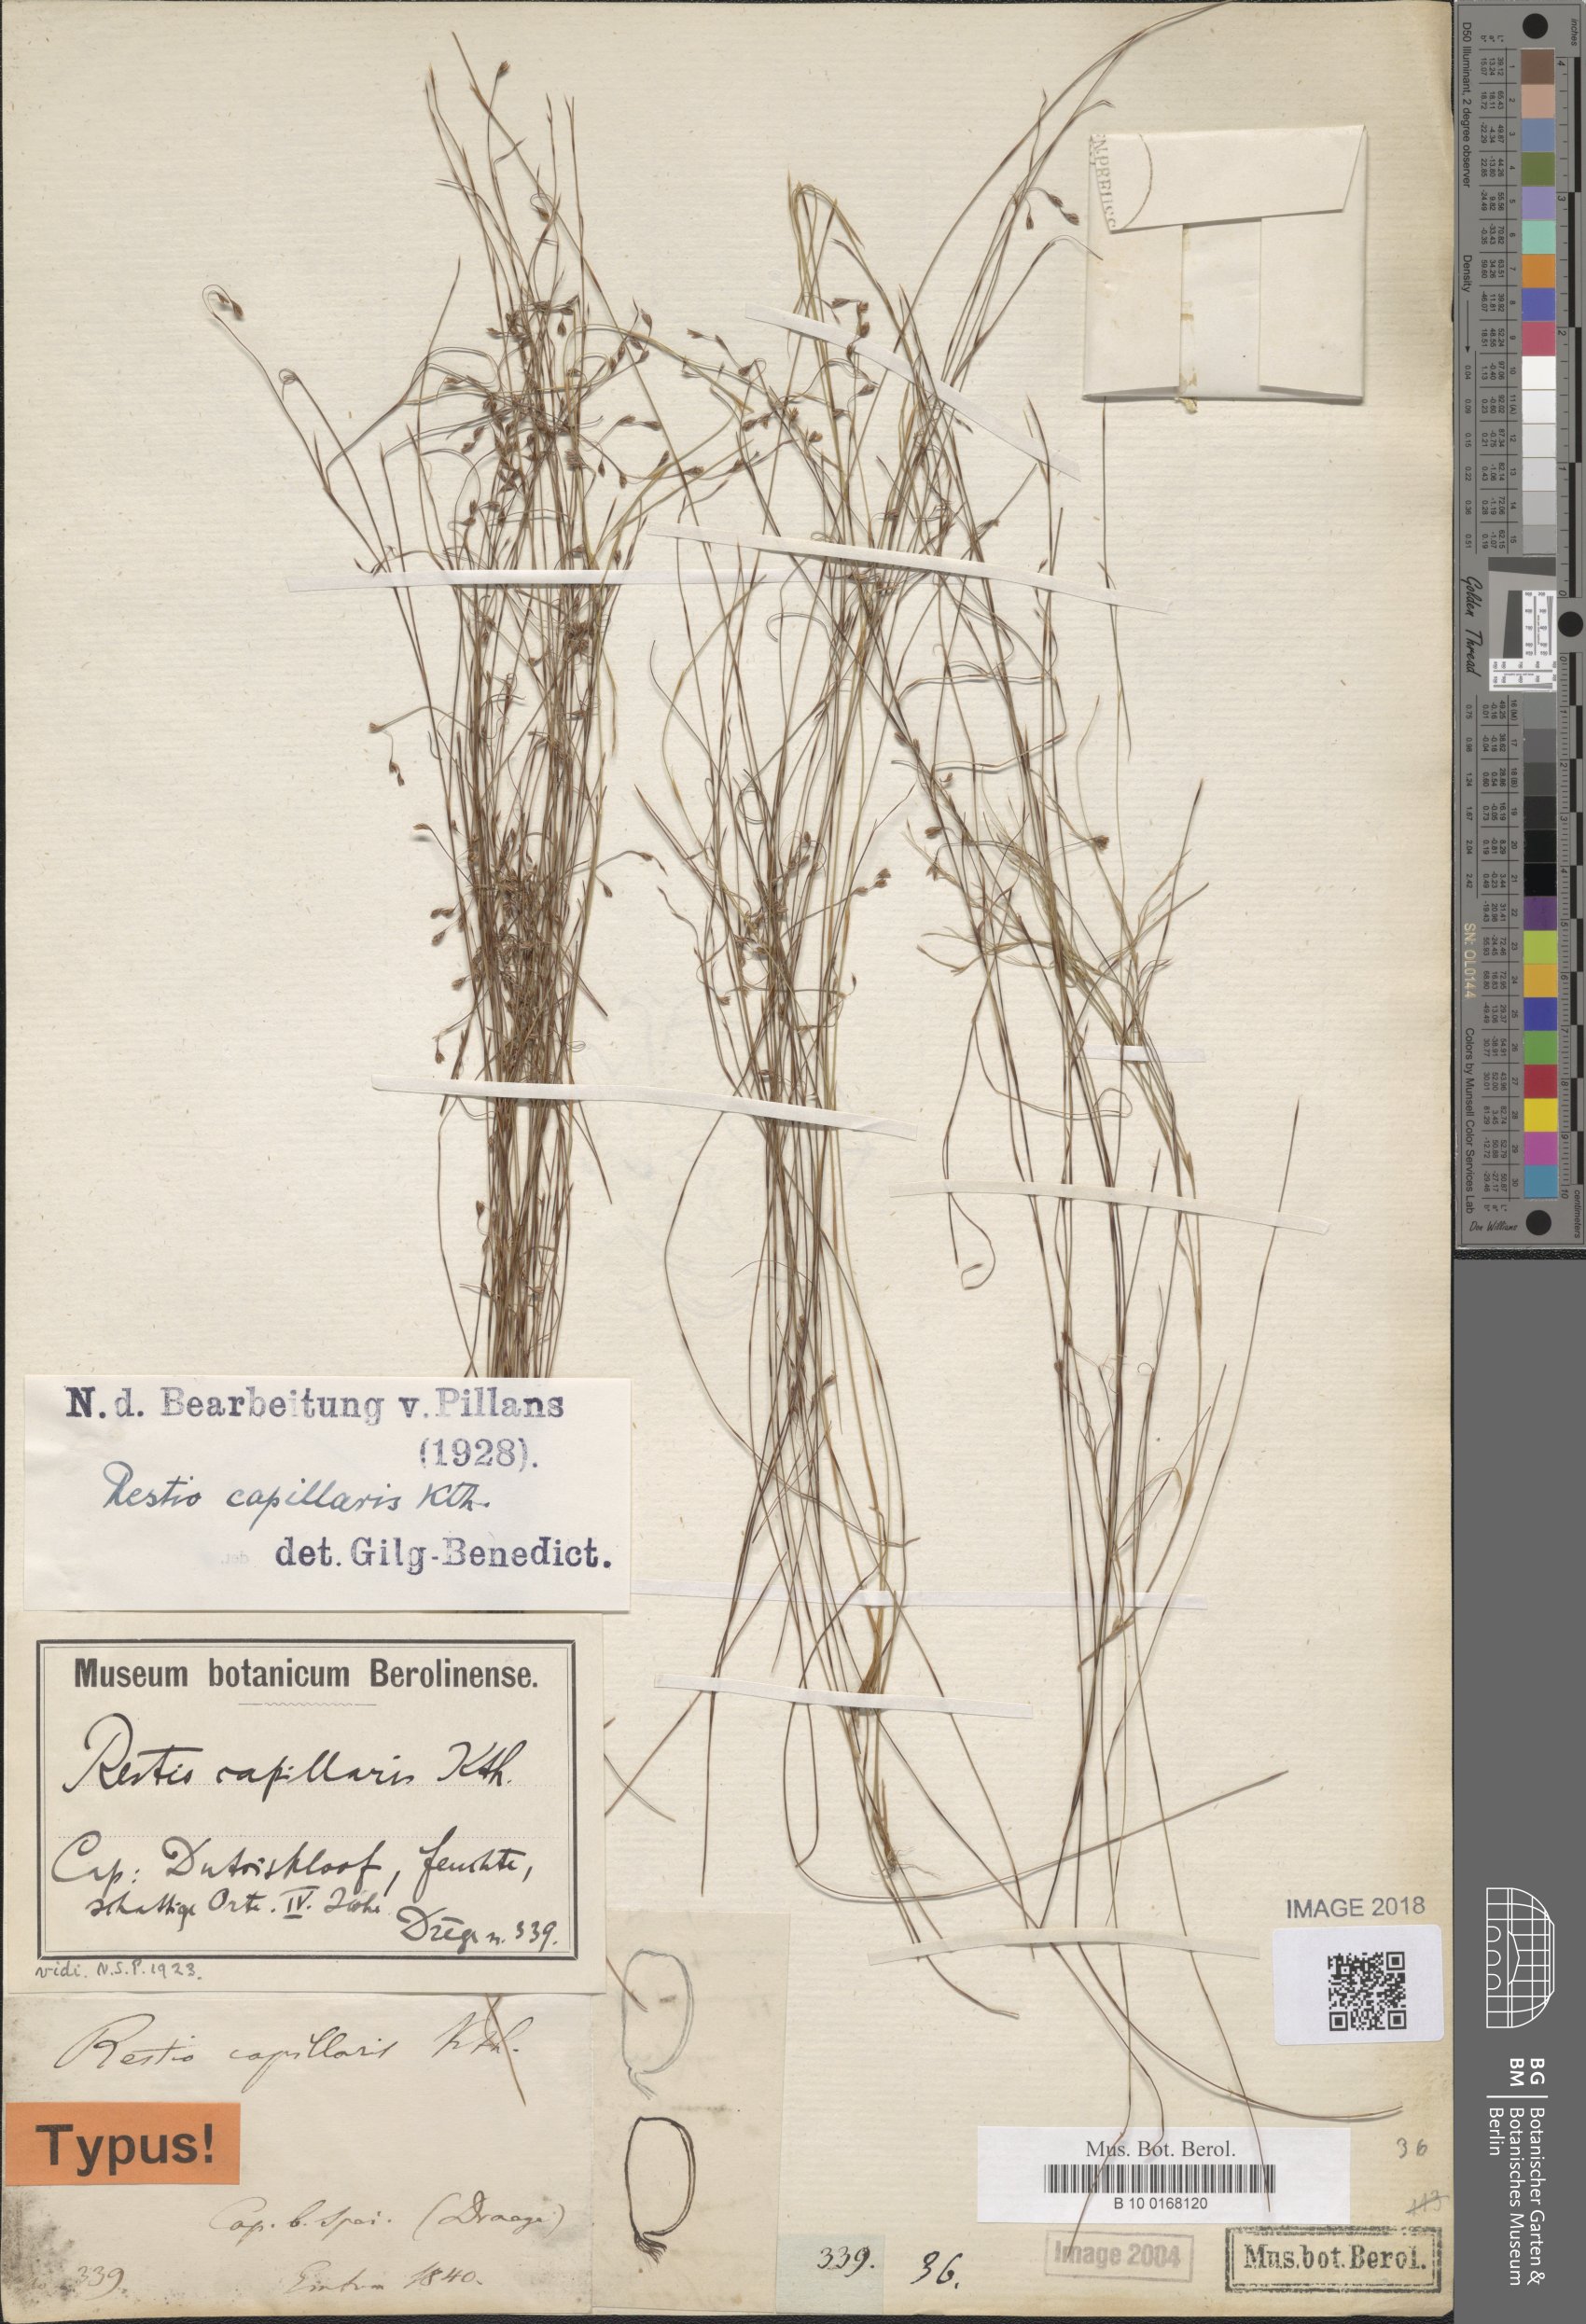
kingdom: Plantae
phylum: Tracheophyta
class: Liliopsida
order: Poales
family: Restionaceae
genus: Restio
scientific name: Restio capillaris
